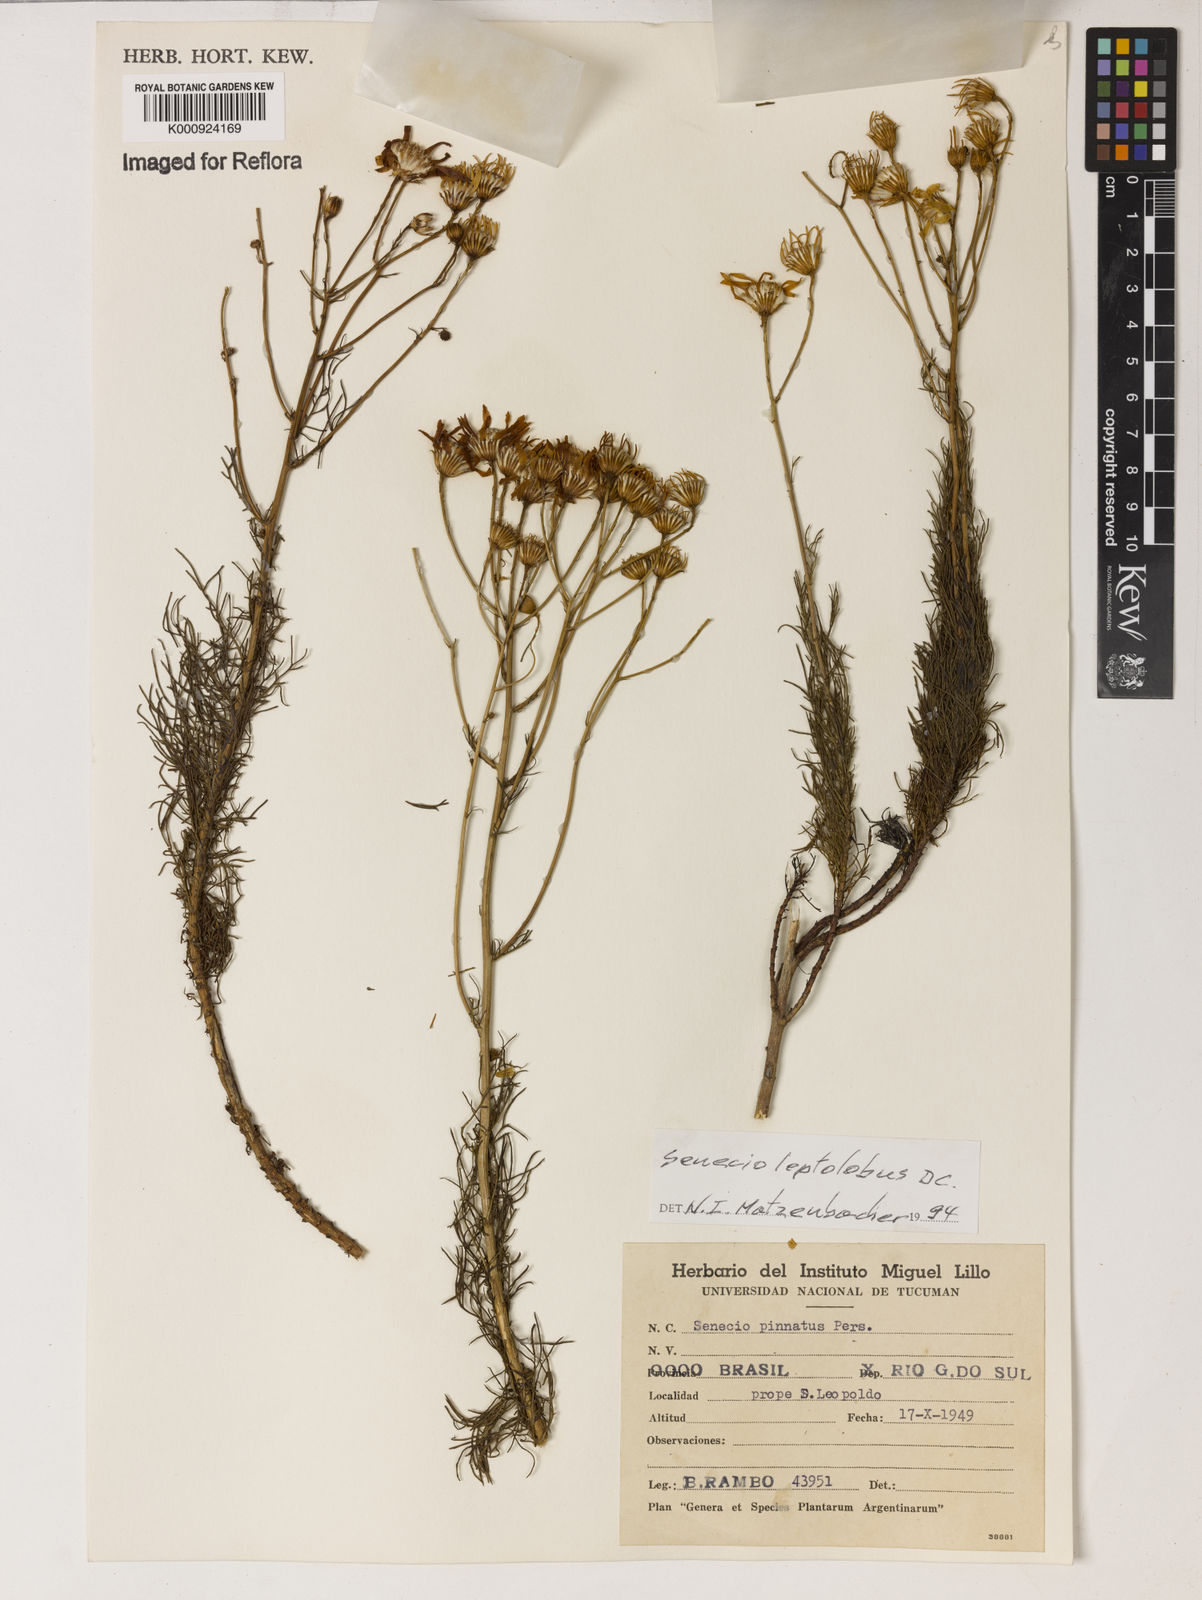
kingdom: Plantae
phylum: Tracheophyta
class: Magnoliopsida
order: Asterales
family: Asteraceae
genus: Senecio
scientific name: Senecio leptolobus
